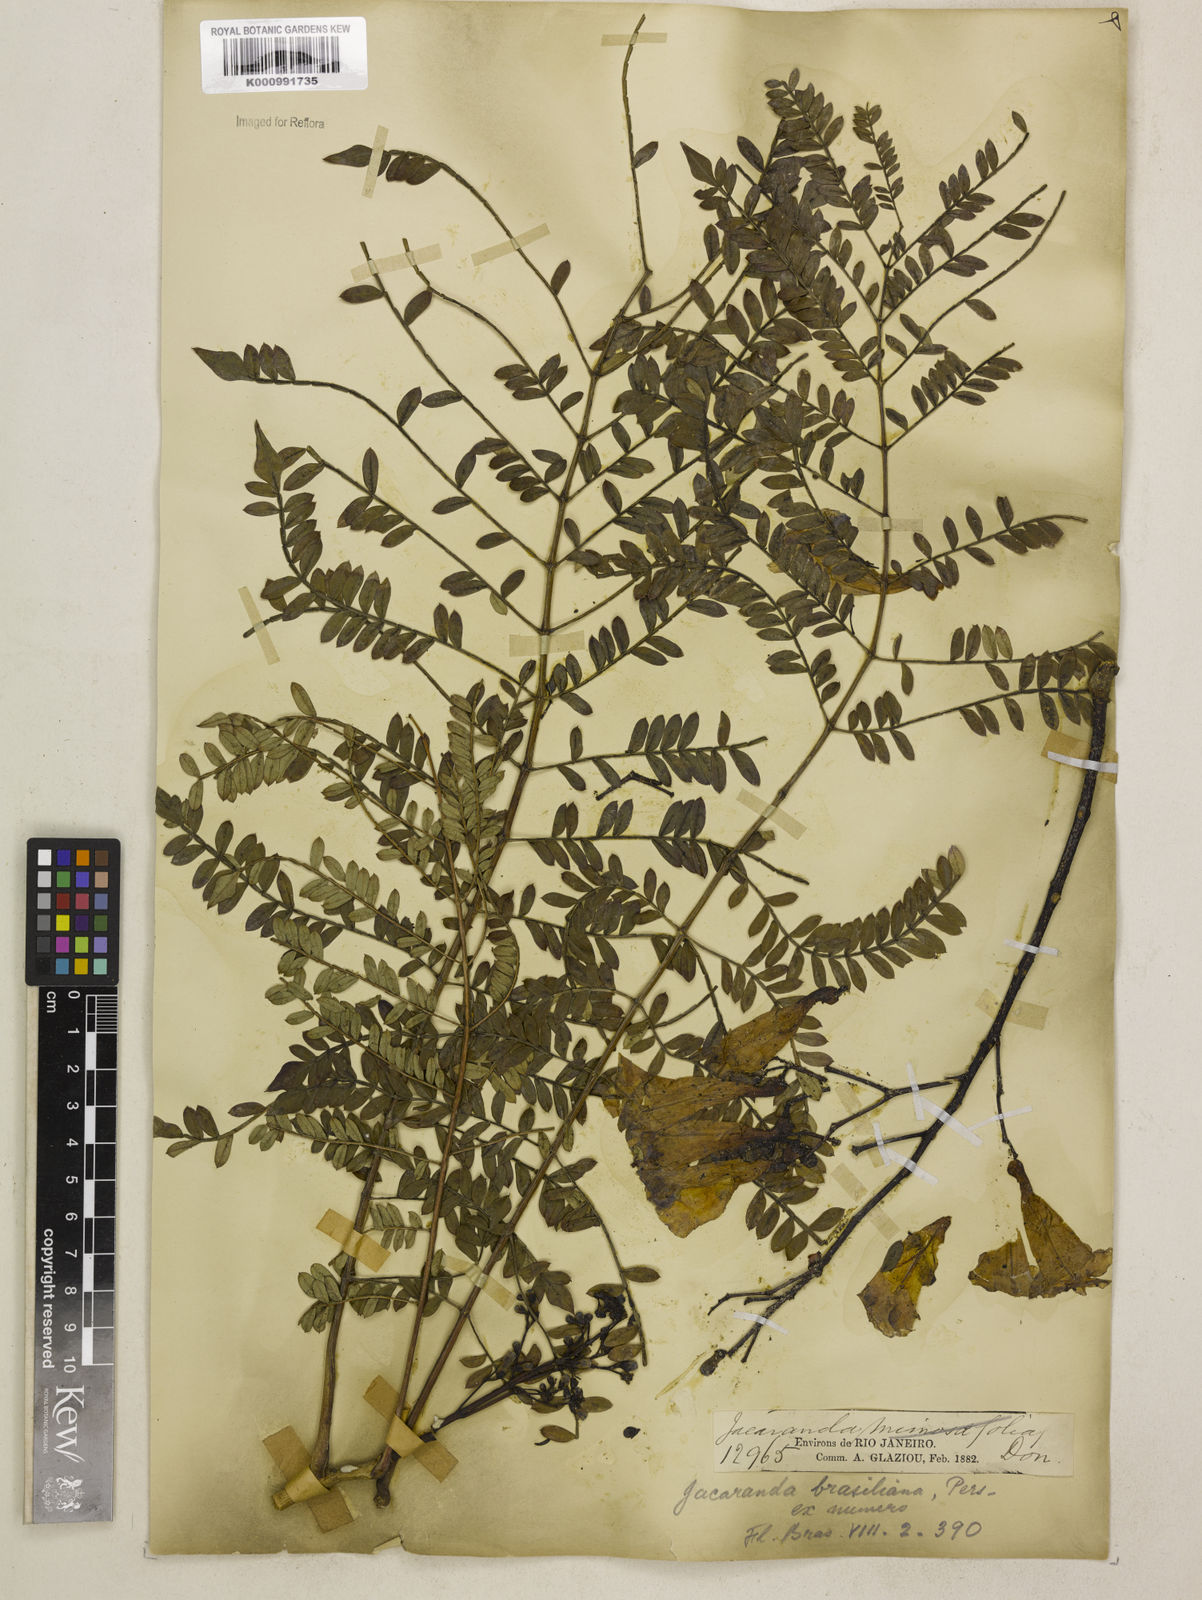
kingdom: Plantae
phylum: Tracheophyta
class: Magnoliopsida
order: Lamiales
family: Bignoniaceae
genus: Jacaranda
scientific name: Jacaranda brasiliana
